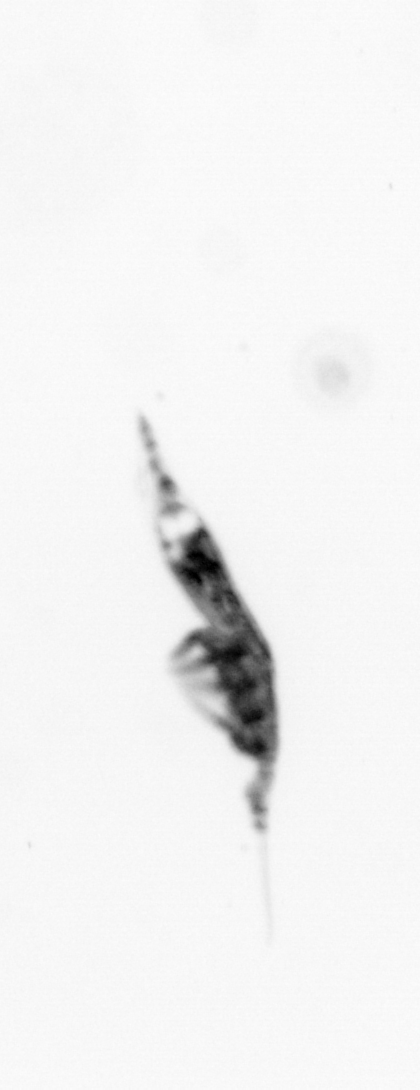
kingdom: Animalia
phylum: Arthropoda
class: Copepoda
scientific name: Copepoda
